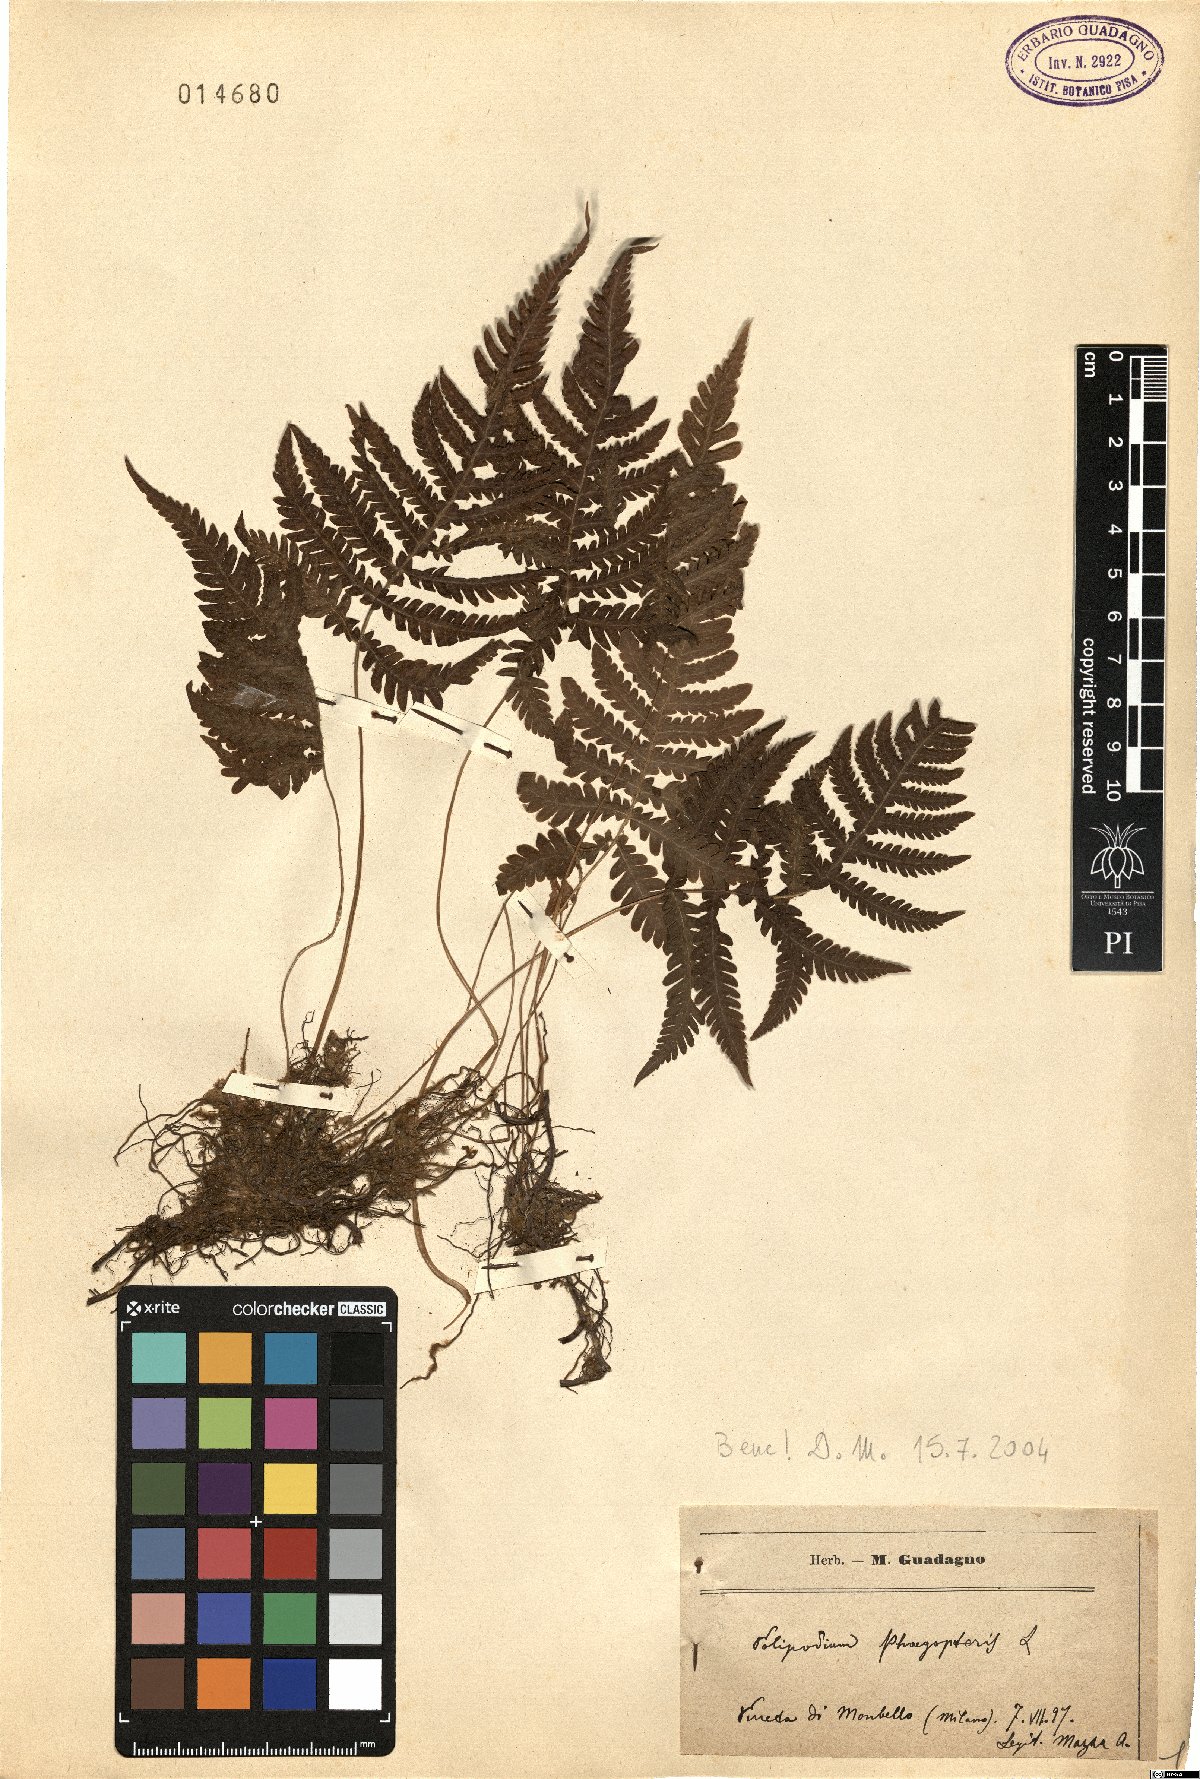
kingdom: Plantae
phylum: Tracheophyta
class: Polypodiopsida
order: Polypodiales
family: Thelypteridaceae
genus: Phegopteris
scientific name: Phegopteris connectilis
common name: Beech fern
